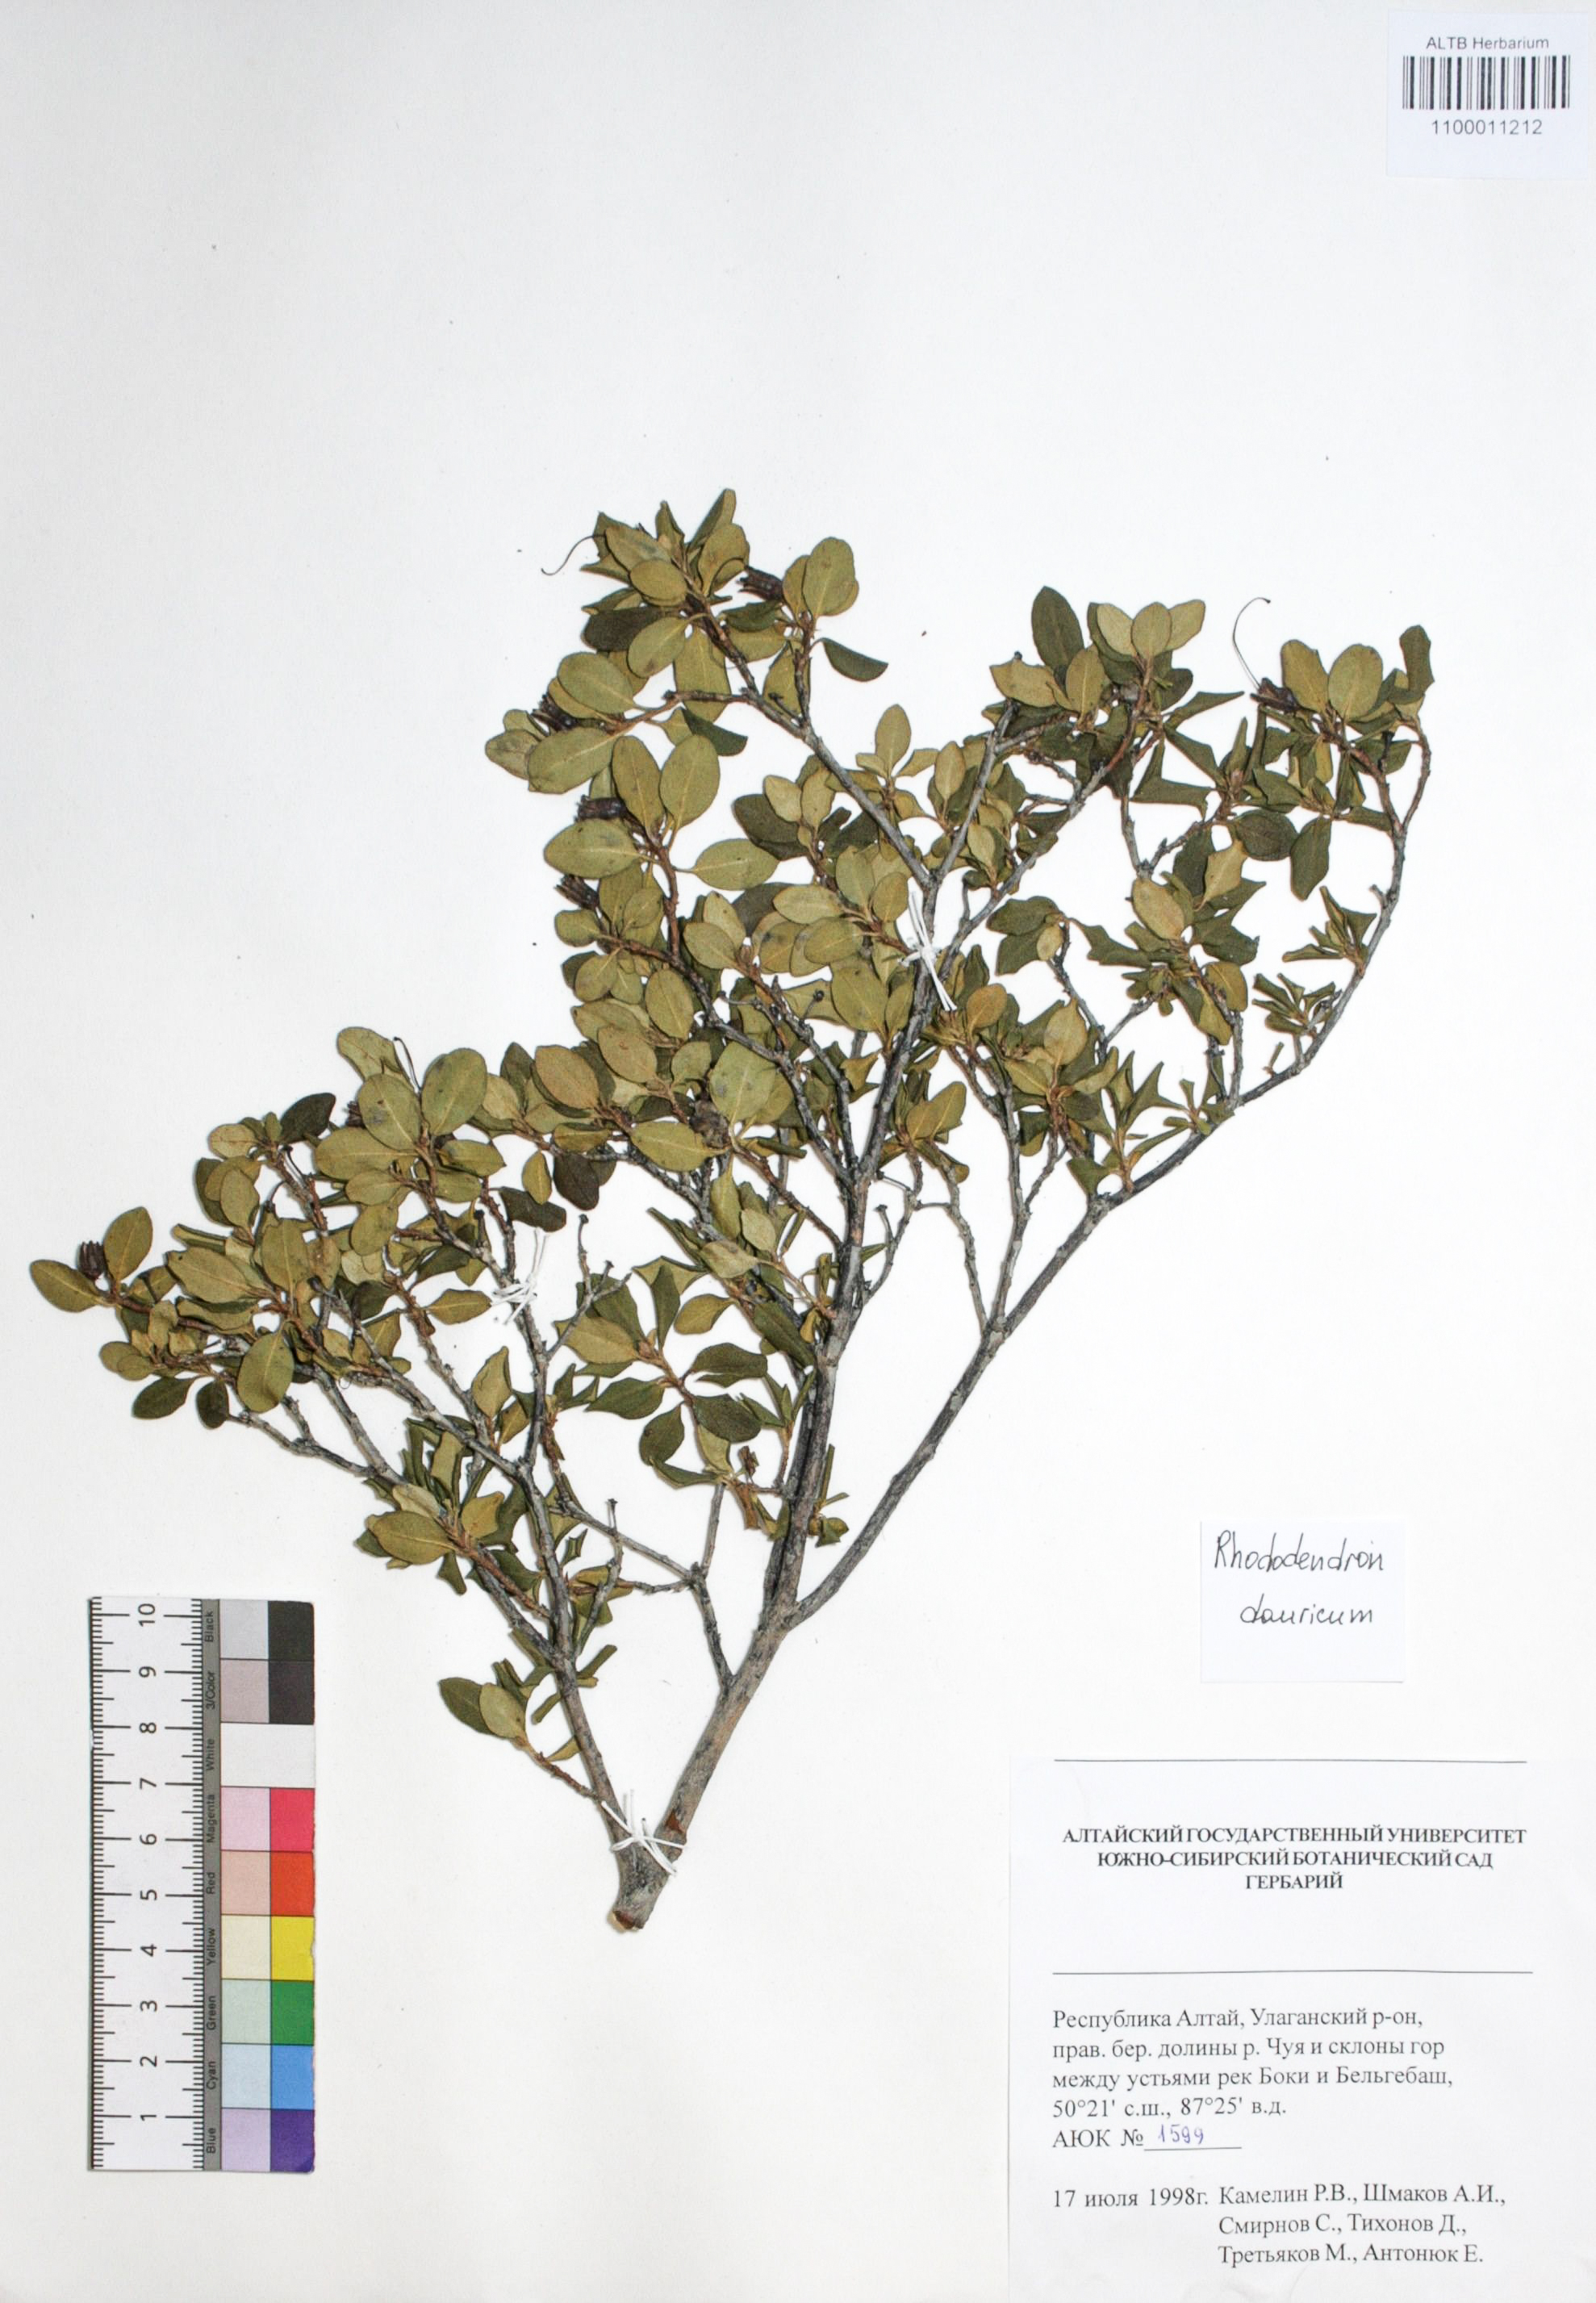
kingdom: Plantae
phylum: Tracheophyta
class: Magnoliopsida
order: Ericales
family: Ericaceae
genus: Rhododendron
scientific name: Rhododendron dahuricum
